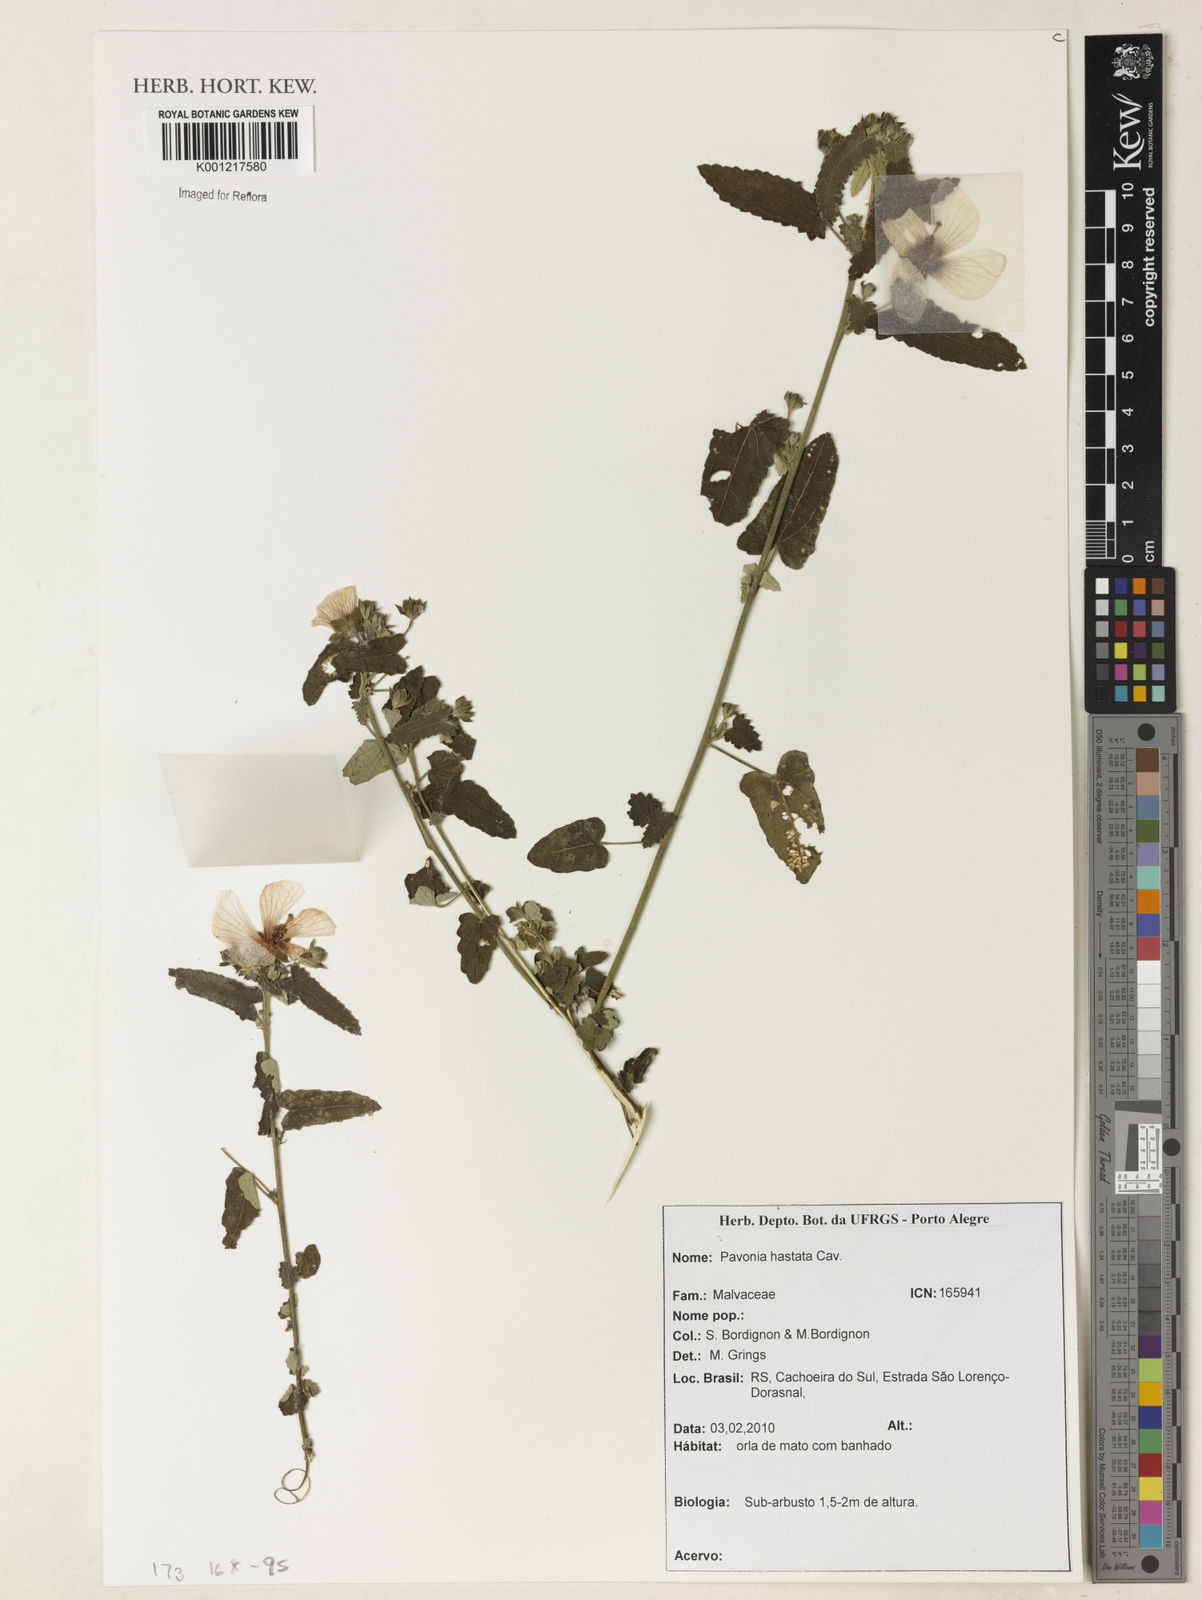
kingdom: Plantae
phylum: Tracheophyta
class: Magnoliopsida
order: Malvales
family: Malvaceae
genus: Pavonia
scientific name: Pavonia hastata
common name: Spearleaf swampmallow
